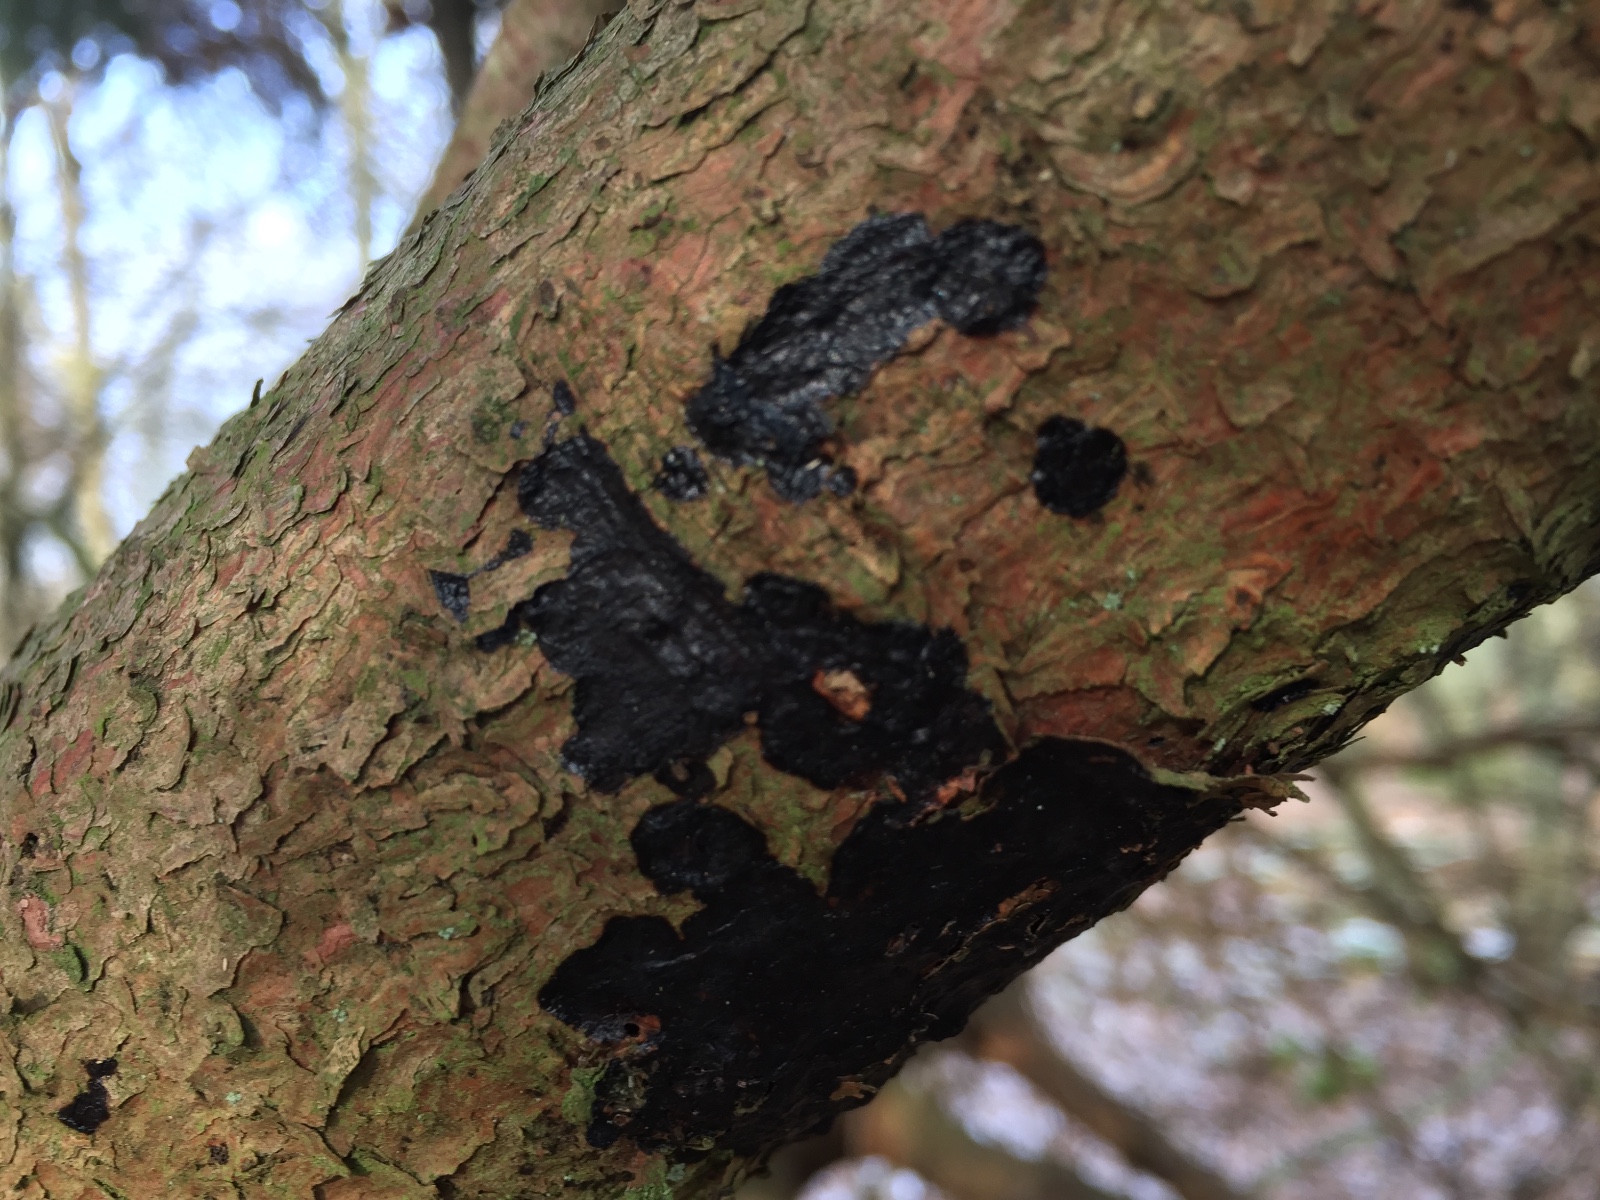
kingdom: Fungi
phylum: Basidiomycota
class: Agaricomycetes
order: Auriculariales
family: Auriculariaceae
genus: Exidia
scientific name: Exidia pithya
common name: gran-bævretop
